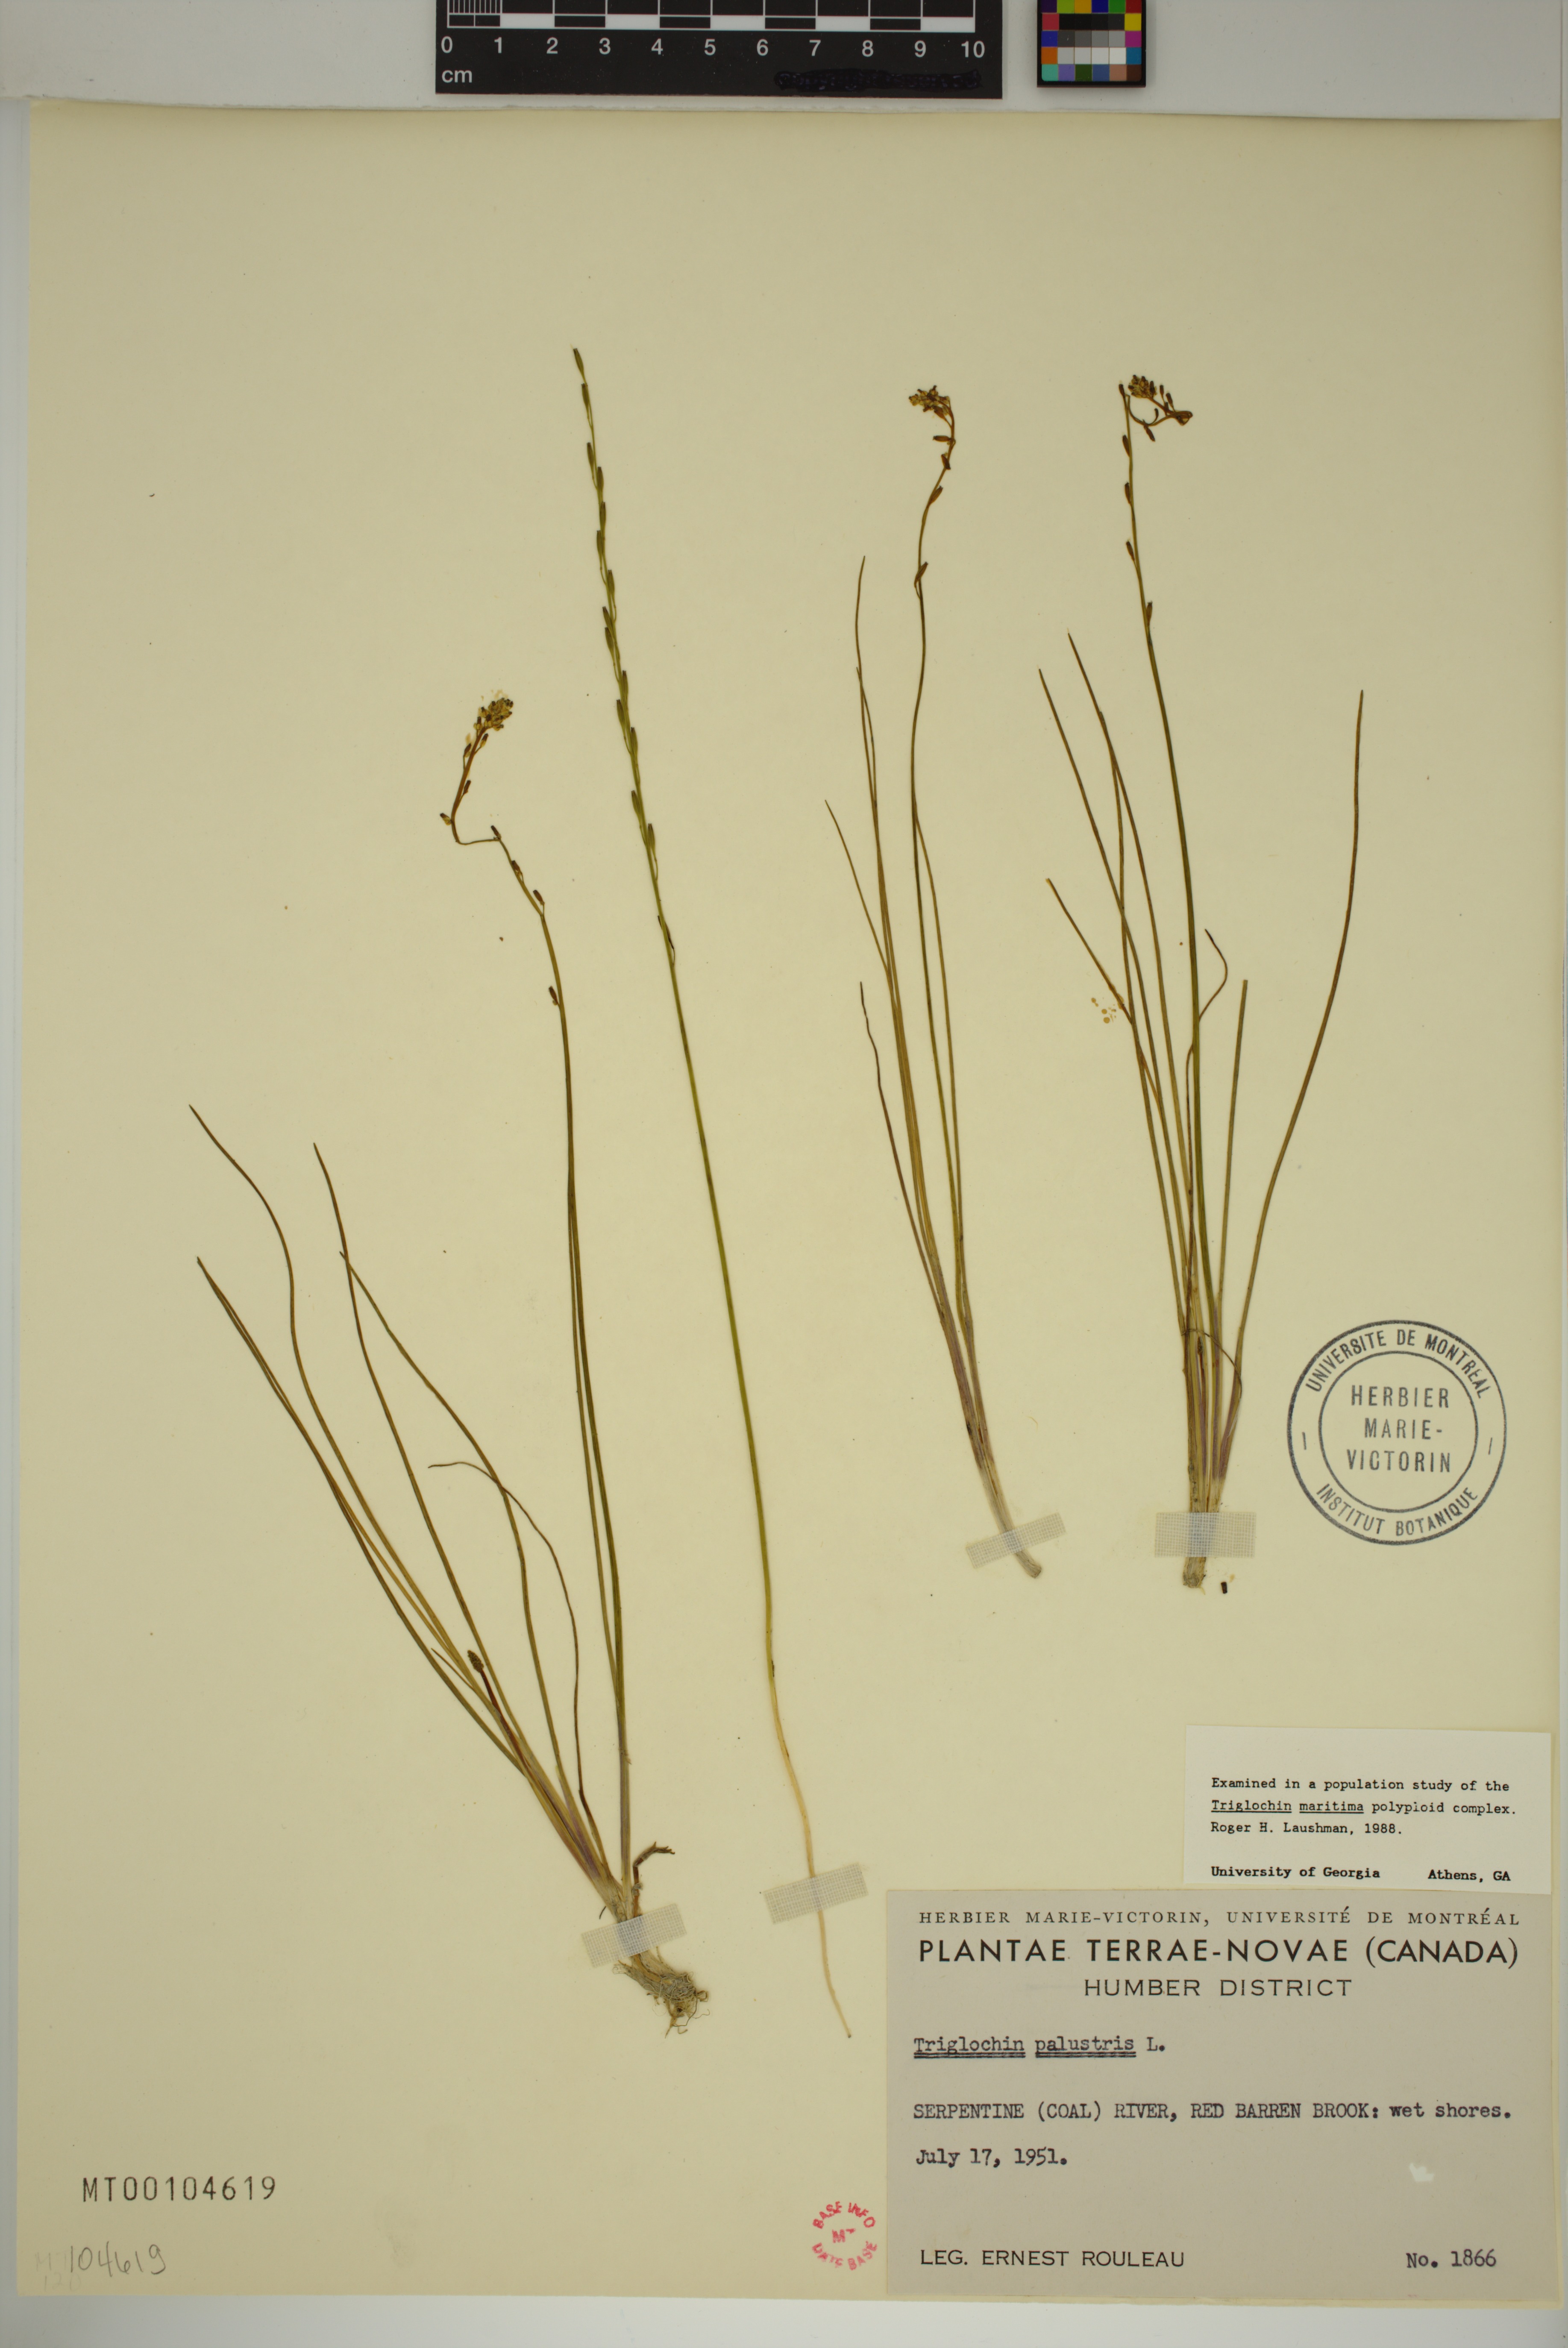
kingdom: Plantae
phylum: Tracheophyta
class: Liliopsida
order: Alismatales
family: Juncaginaceae
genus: Triglochin
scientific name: Triglochin palustris
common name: Marsh arrowgrass
